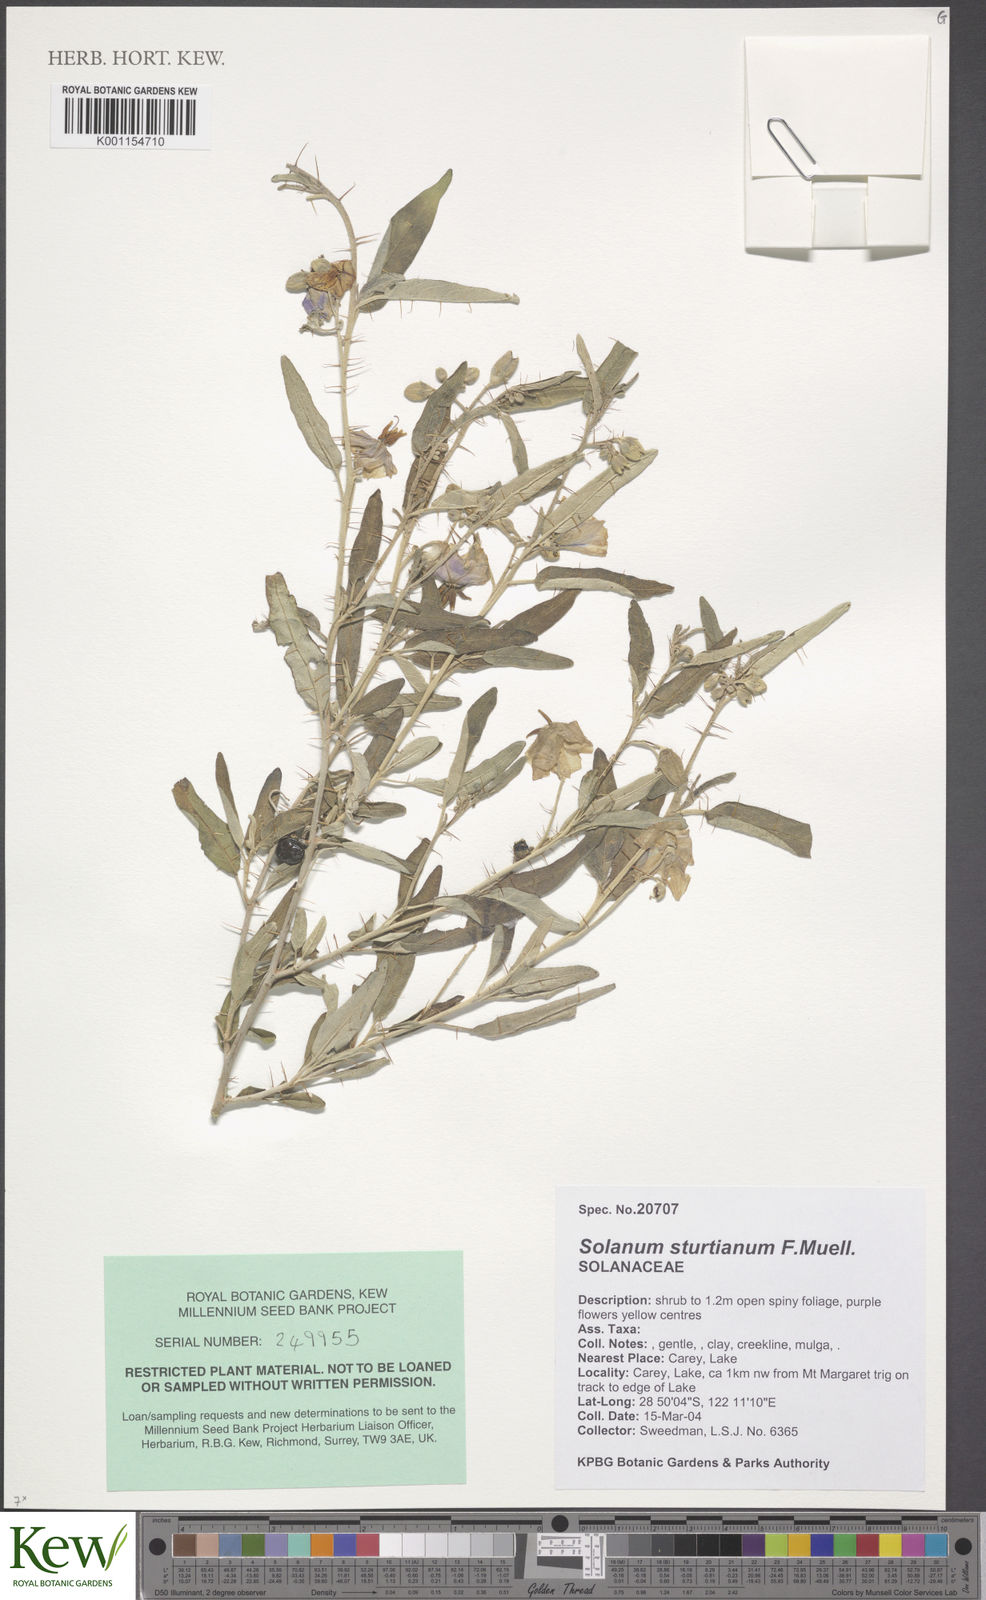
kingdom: Plantae
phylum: Tracheophyta
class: Magnoliopsida
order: Solanales
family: Solanaceae
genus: Solanum
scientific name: Solanum sturtianum
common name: Thargomindah nightshade
